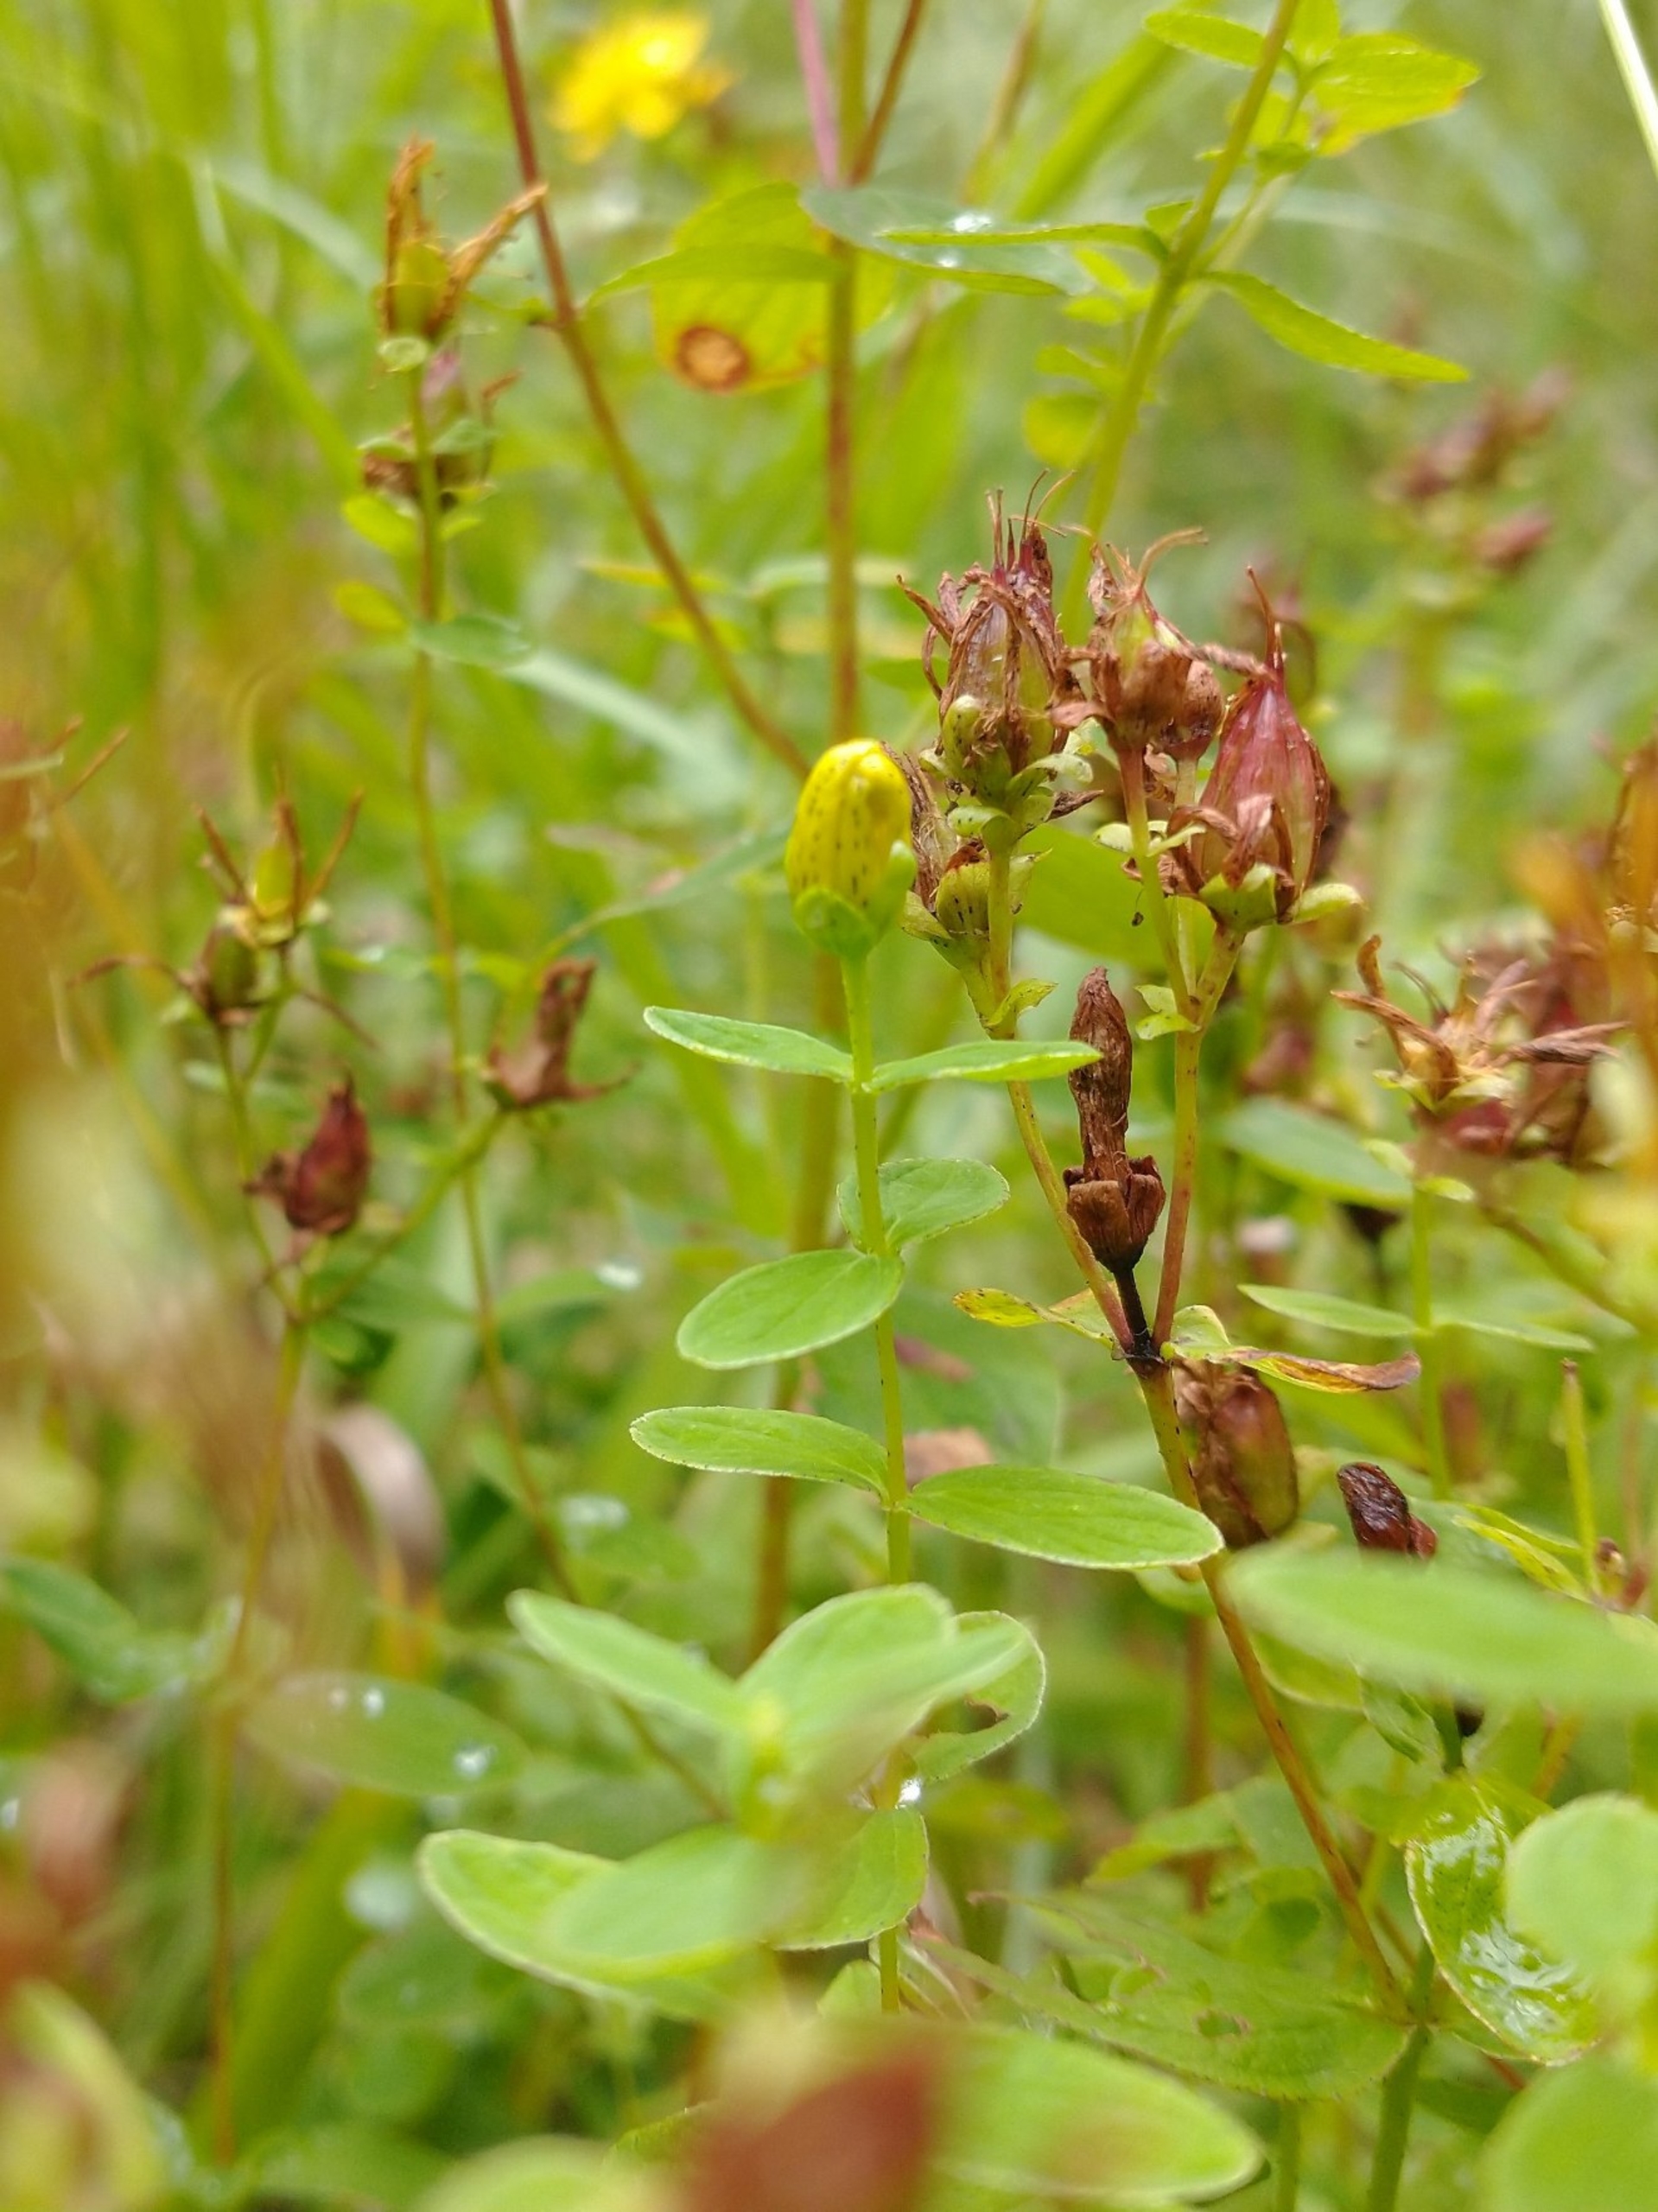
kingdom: Plantae
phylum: Tracheophyta
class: Magnoliopsida
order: Malpighiales
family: Hypericaceae
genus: Hypericum
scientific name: Hypericum maculatum
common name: Kantet perikon
